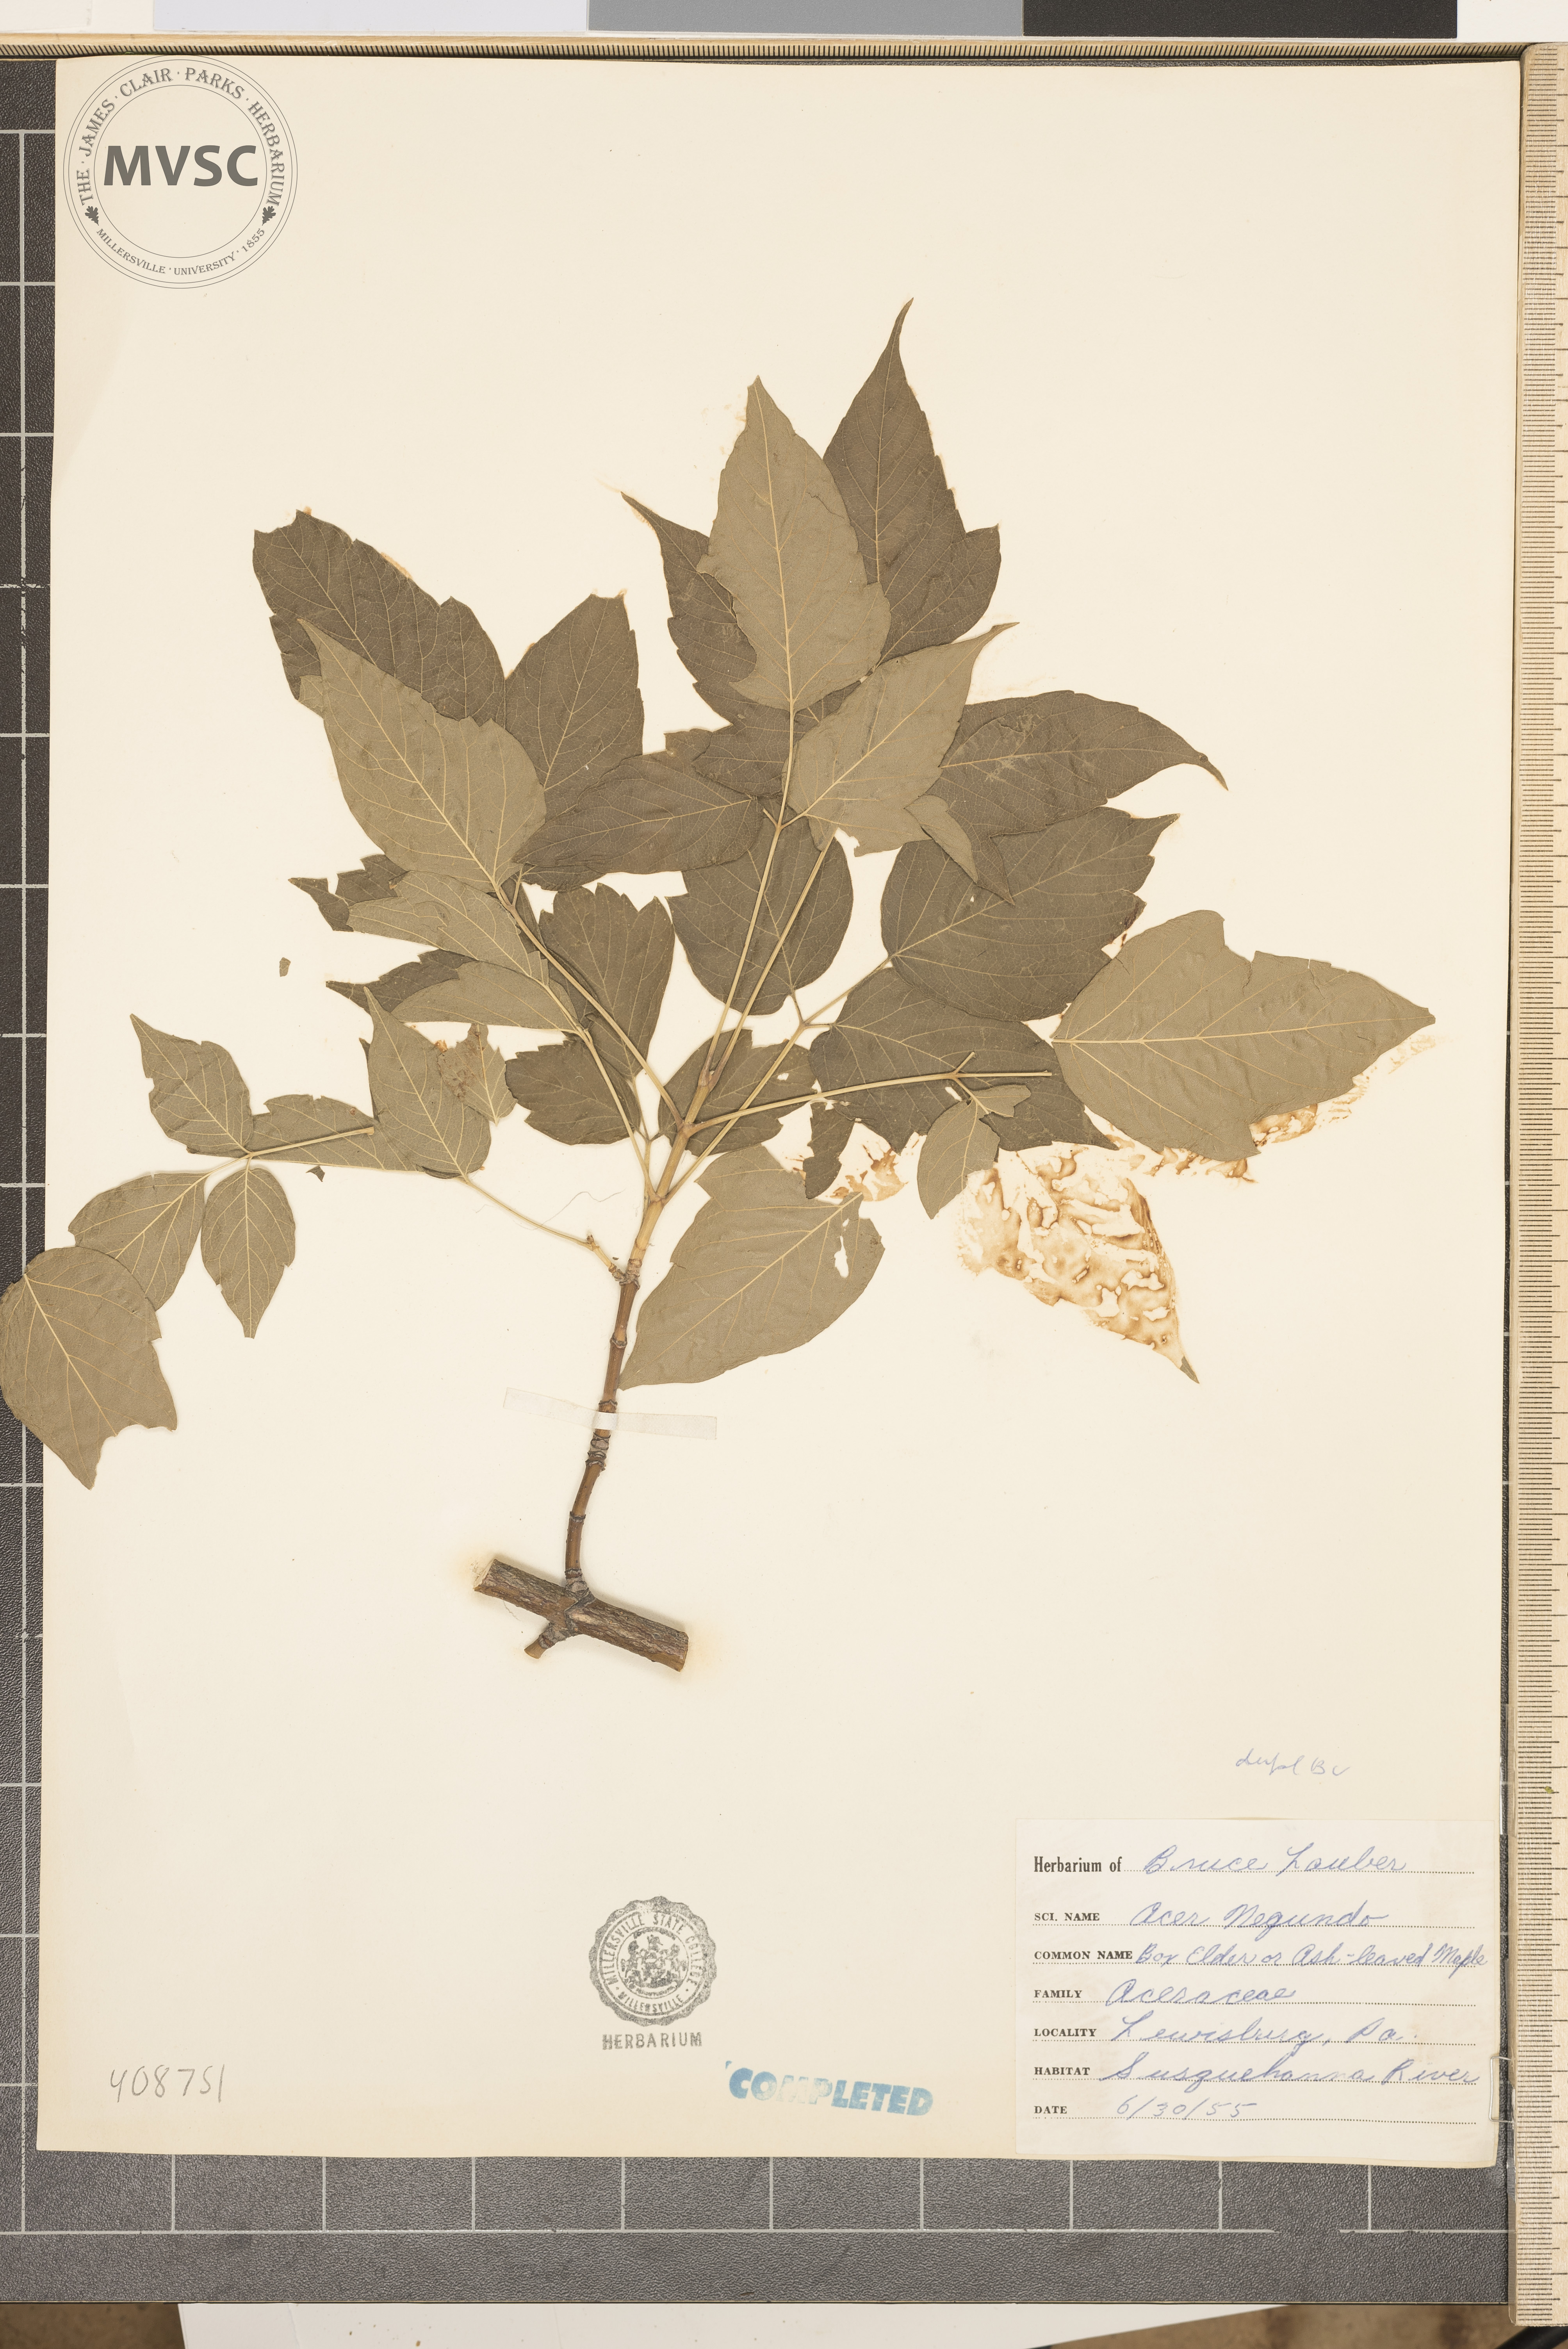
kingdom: Plantae
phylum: Tracheophyta
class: Magnoliopsida
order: Sapindales
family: Sapindaceae
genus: Acer
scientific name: Acer negundo
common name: Ashleaf maple
